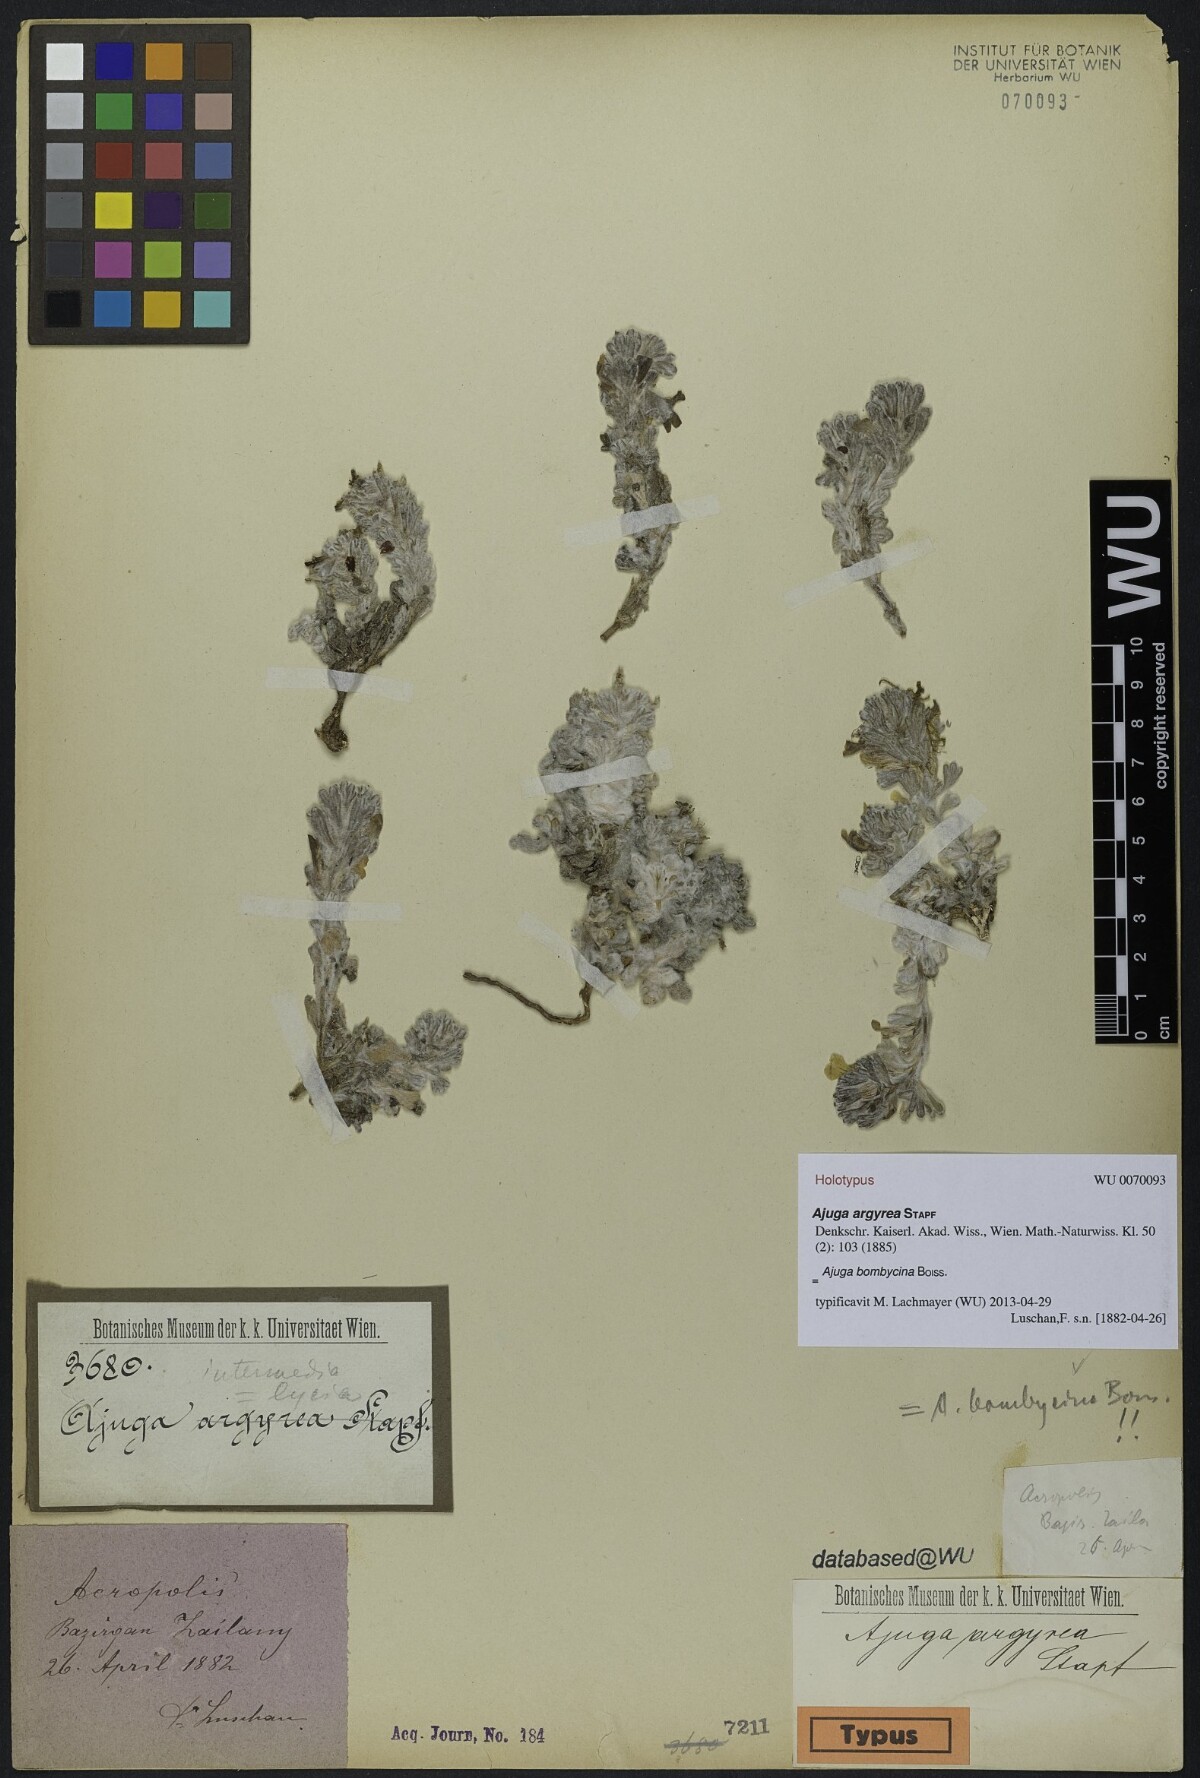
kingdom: Plantae
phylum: Tracheophyta
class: Magnoliopsida
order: Lamiales
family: Lamiaceae
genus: Ajuga
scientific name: Ajuga bombycina
